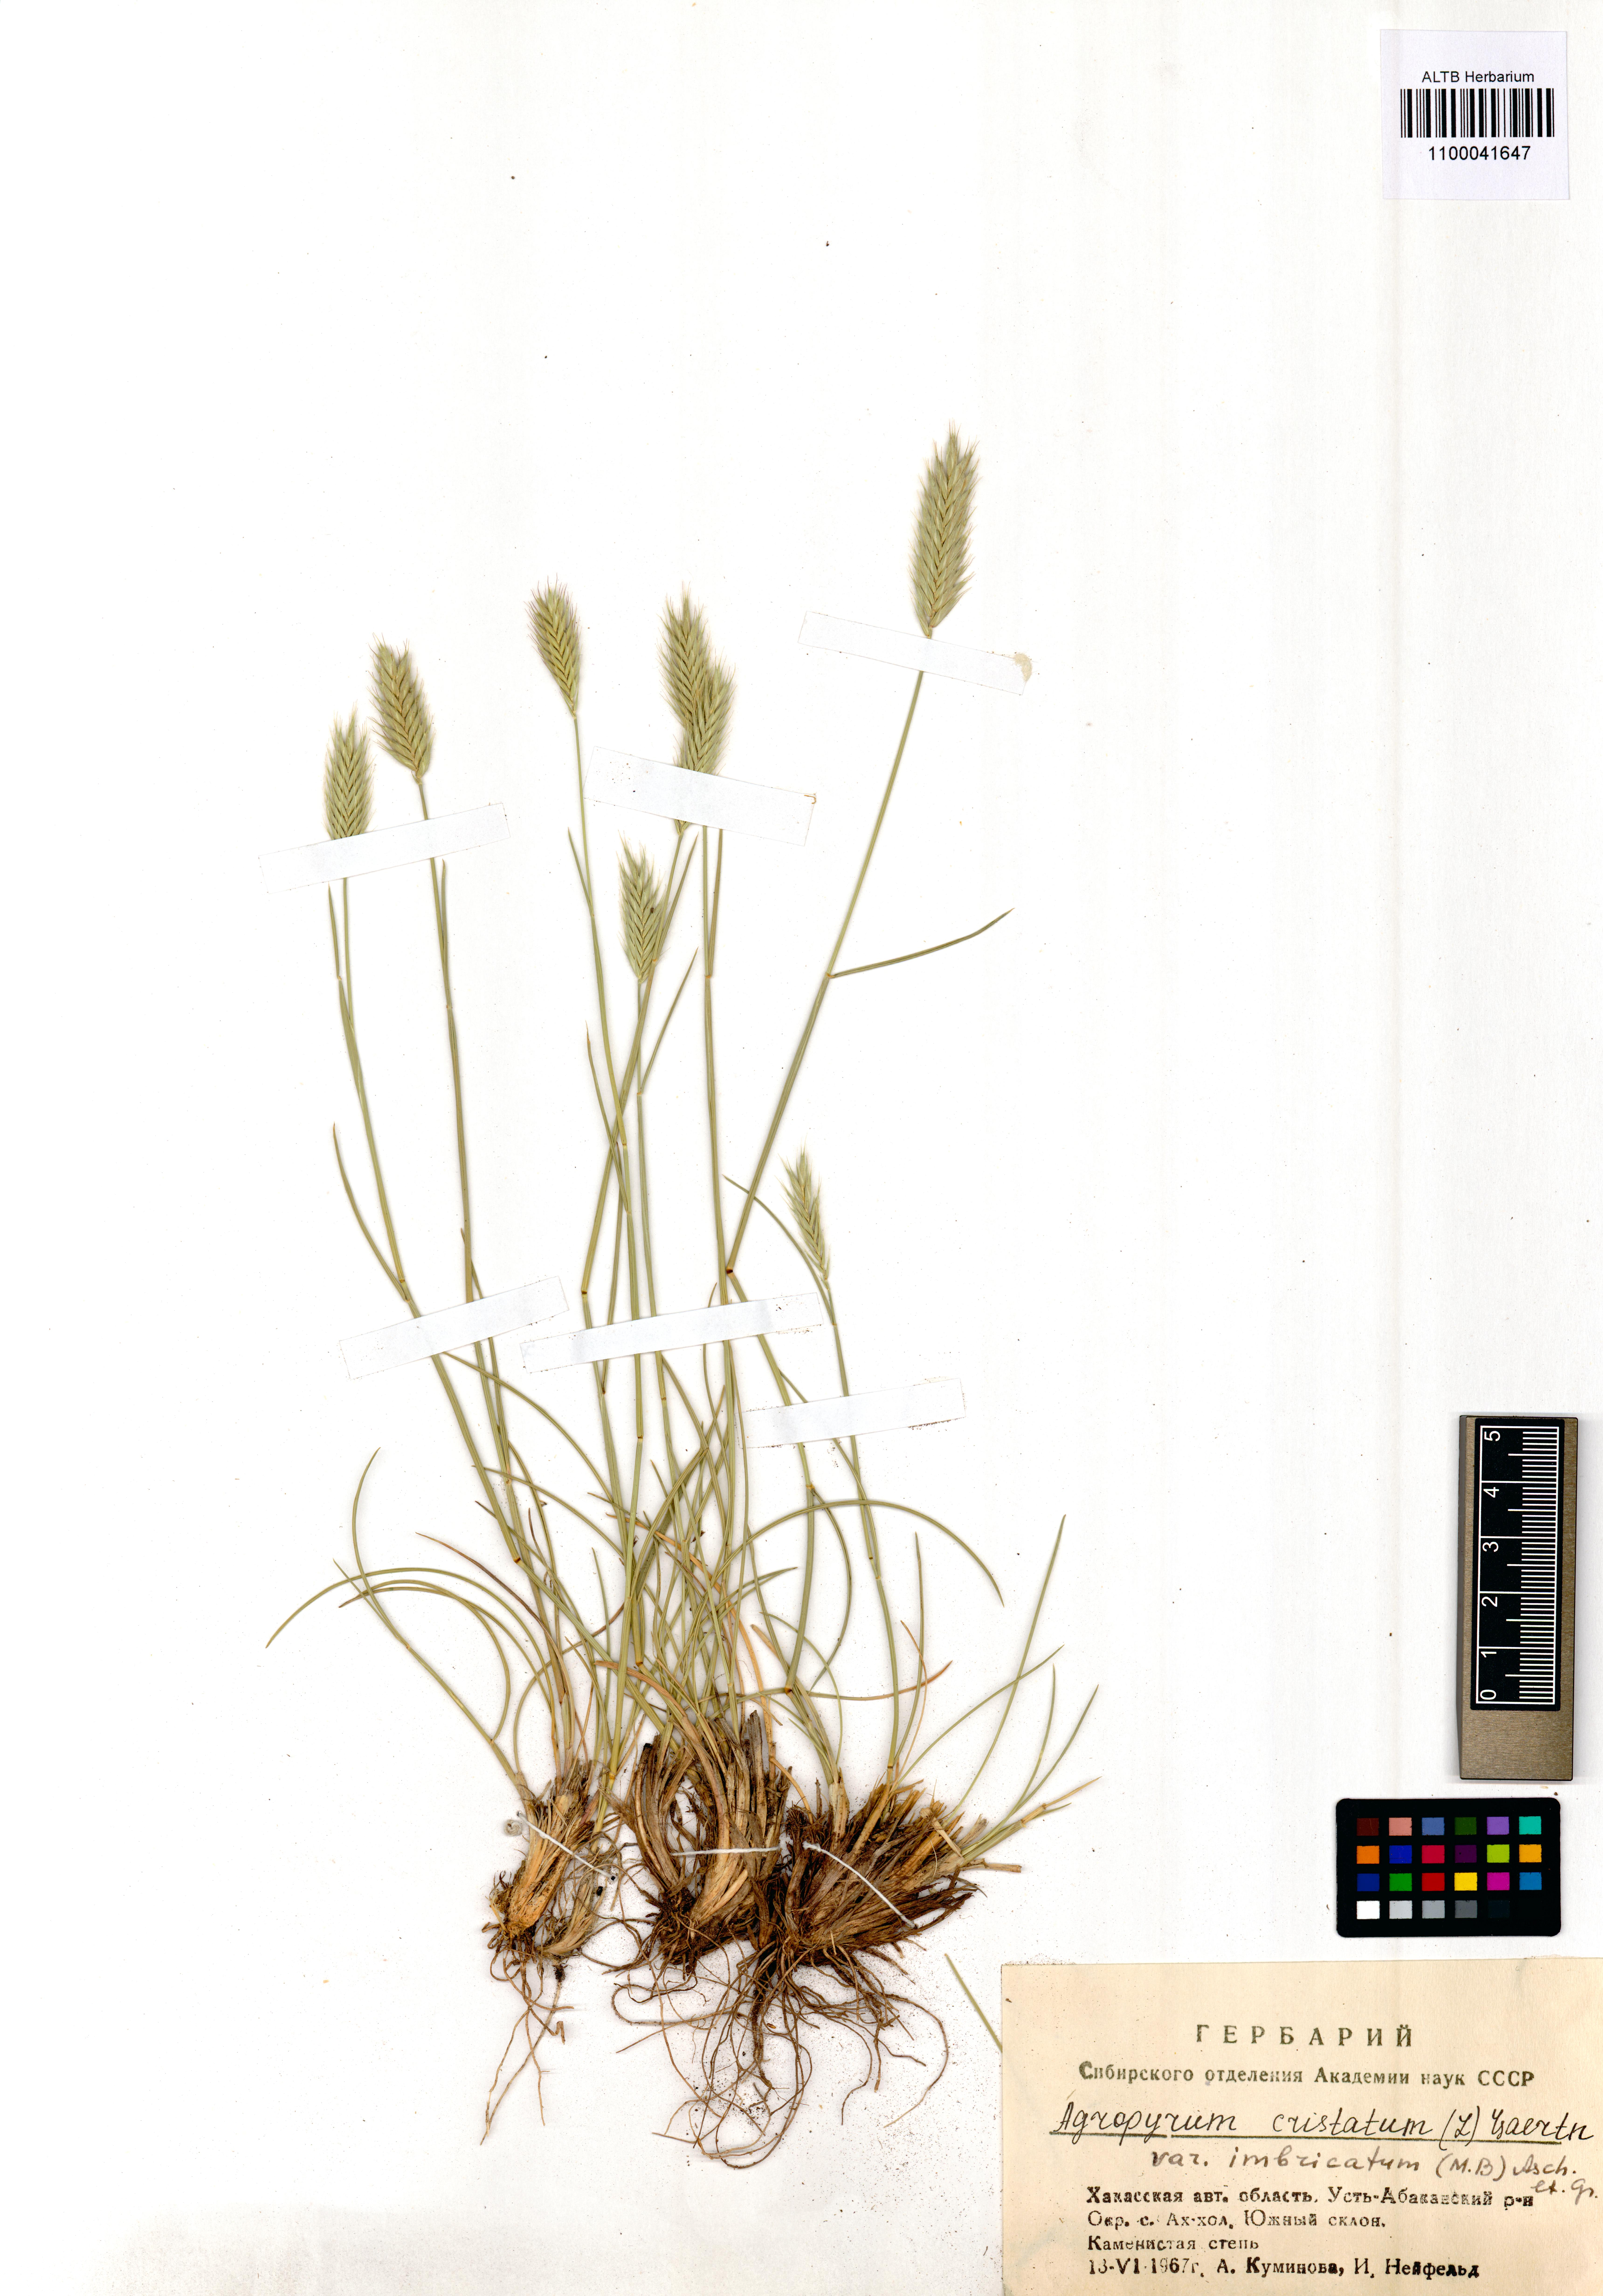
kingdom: Plantae
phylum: Tracheophyta
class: Liliopsida
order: Poales
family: Poaceae
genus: Agropyron
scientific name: Agropyron cristatum
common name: Crested wheatgrass
